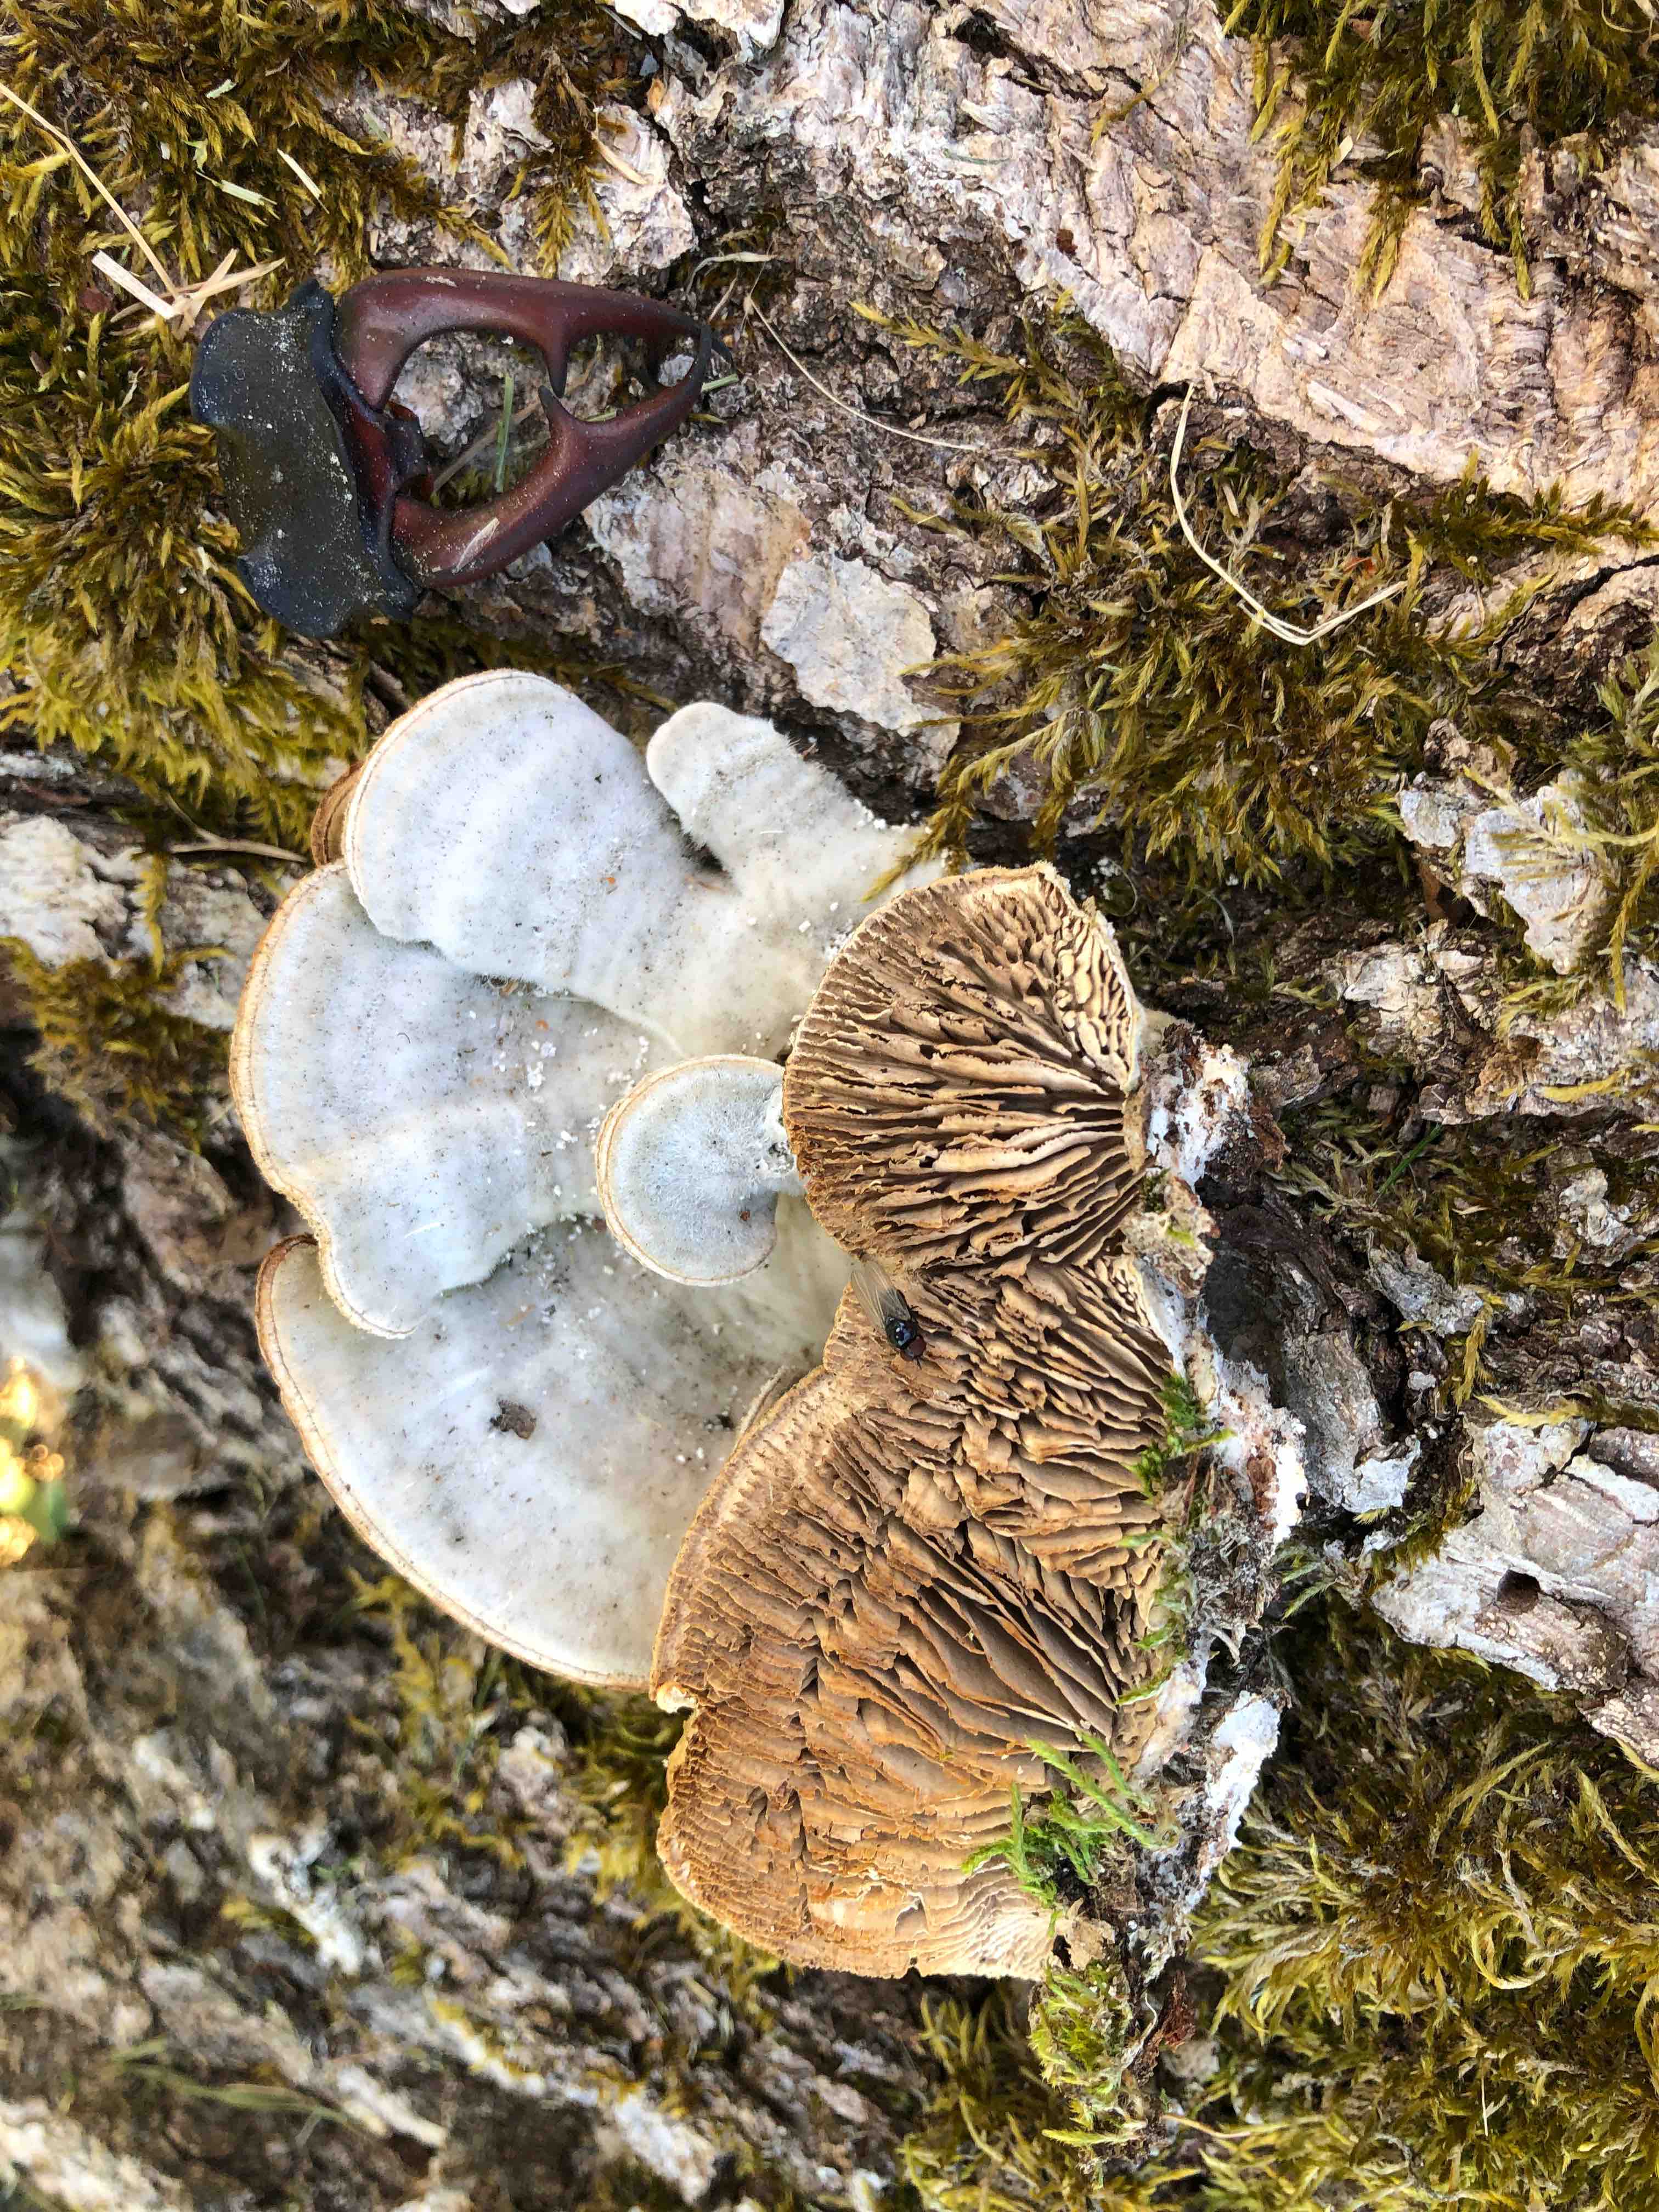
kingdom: Fungi
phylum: Basidiomycota
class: Agaricomycetes
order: Polyporales
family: Polyporaceae
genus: Lenzites
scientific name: Lenzites betulinus
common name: birke-læderporesvamp
